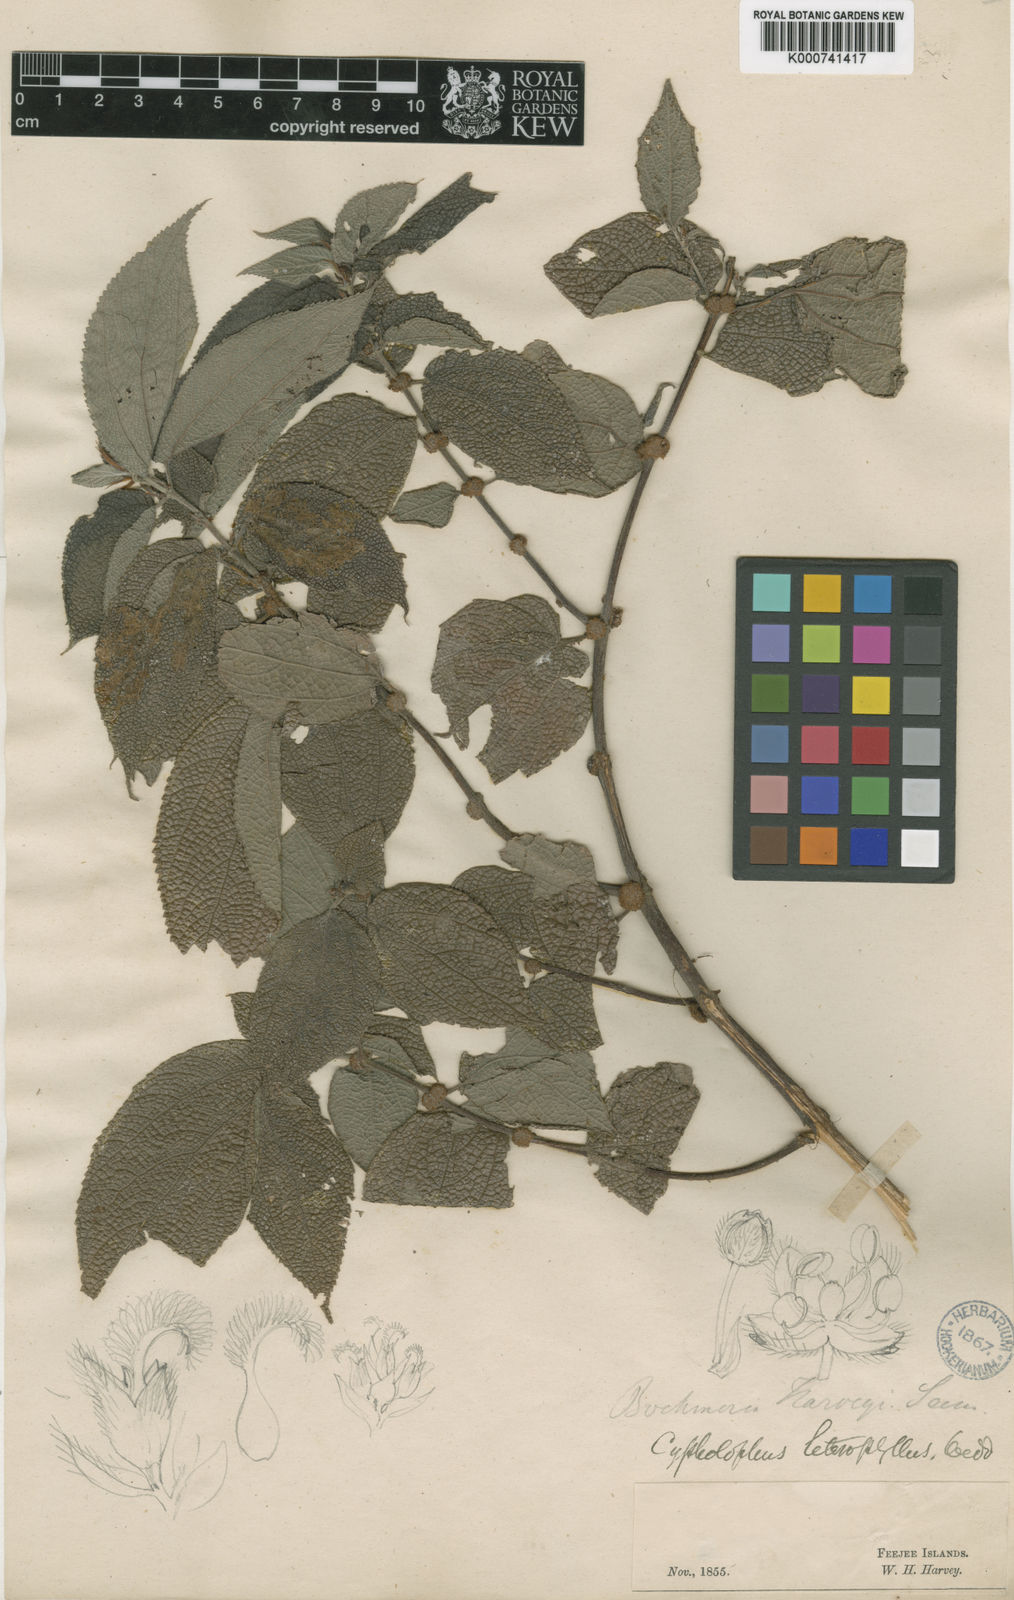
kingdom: Plantae
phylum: Tracheophyta
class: Magnoliopsida
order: Rosales
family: Urticaceae
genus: Cypholophus
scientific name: Cypholophus macrocephalus
